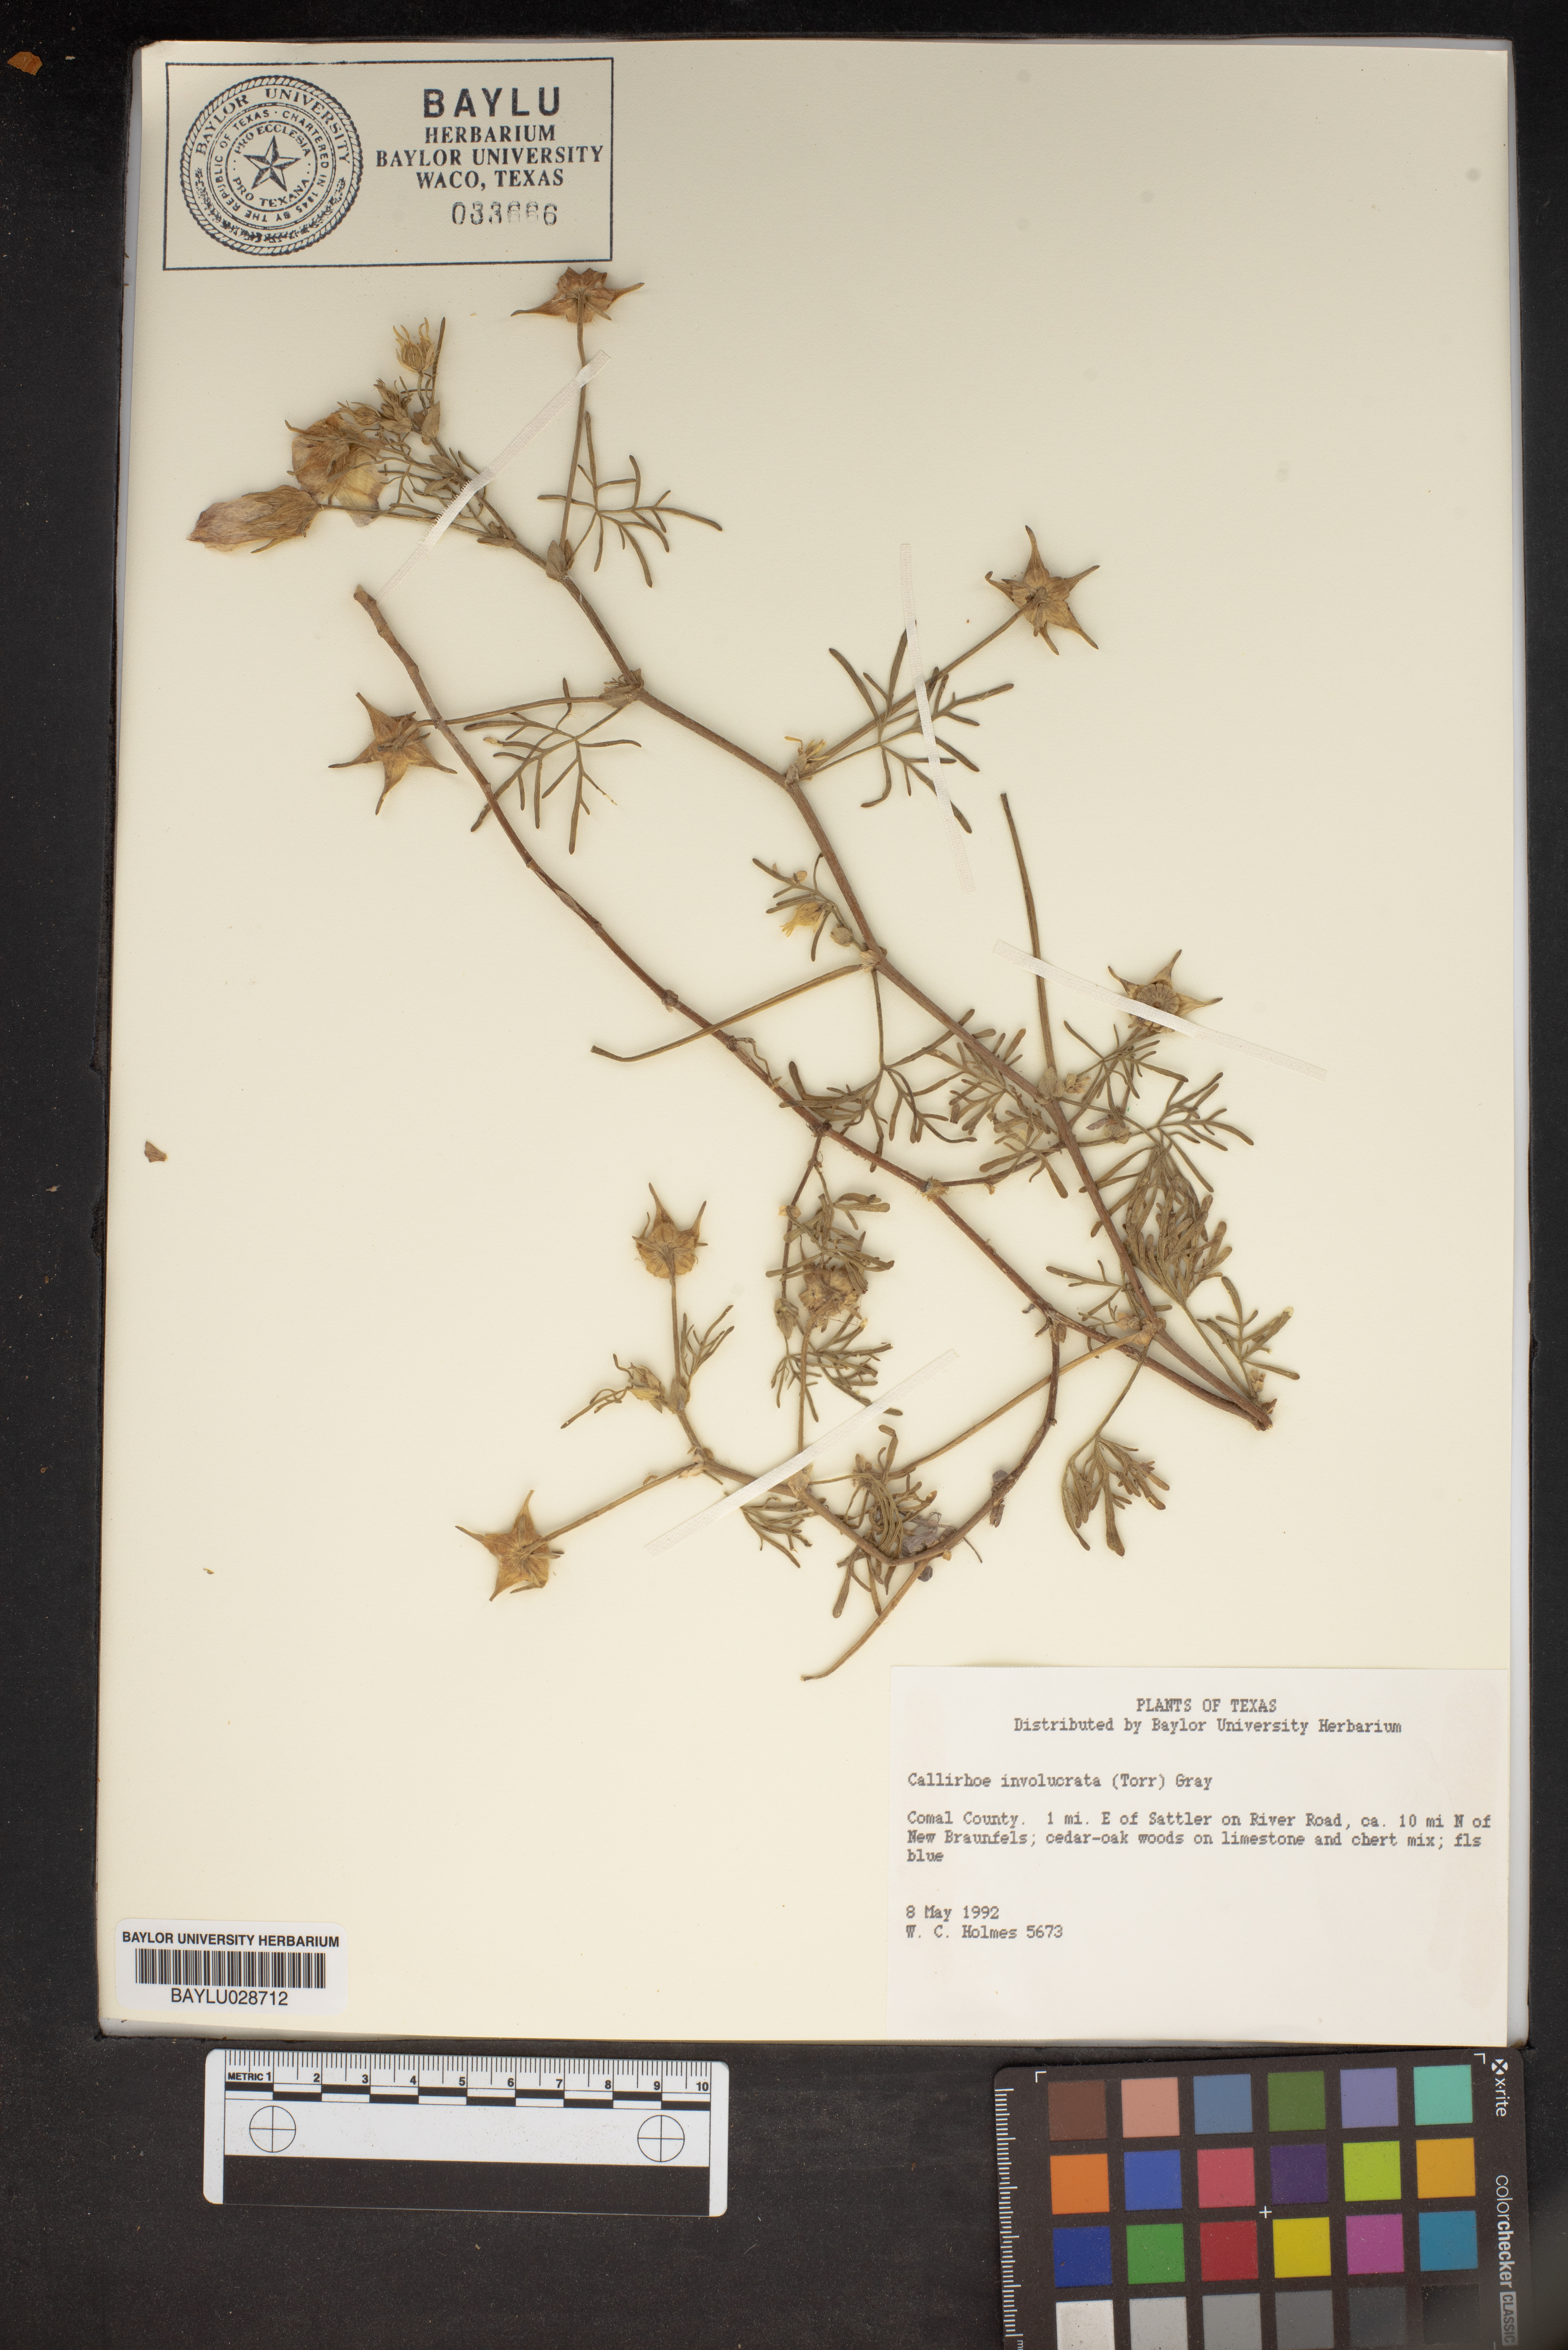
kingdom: Plantae
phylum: Tracheophyta
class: Magnoliopsida
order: Malvales
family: Malvaceae
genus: Callirhoe
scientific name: Callirhoe involucrata
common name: Purple poppy-mallow
